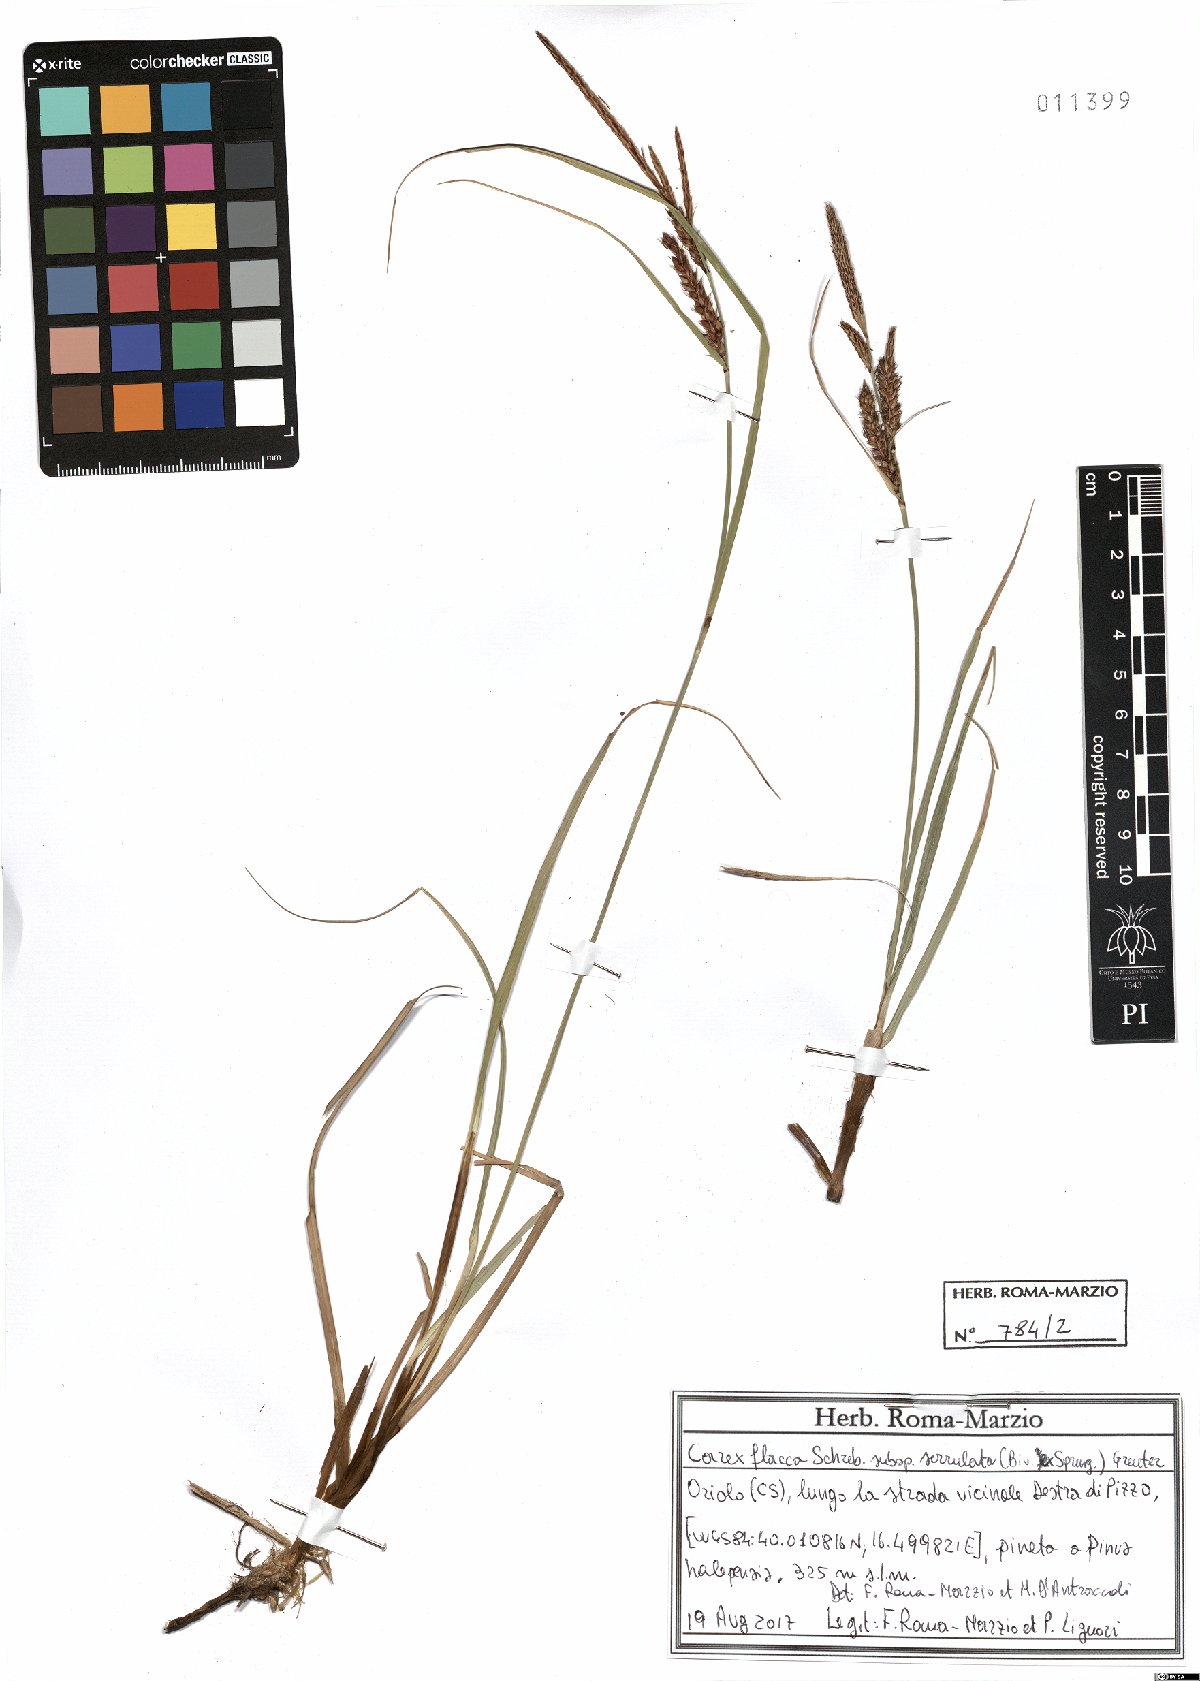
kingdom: Plantae
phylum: Tracheophyta
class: Liliopsida
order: Poales
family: Cyperaceae
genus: Carex
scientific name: Carex flacca
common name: Glaucous sedge
